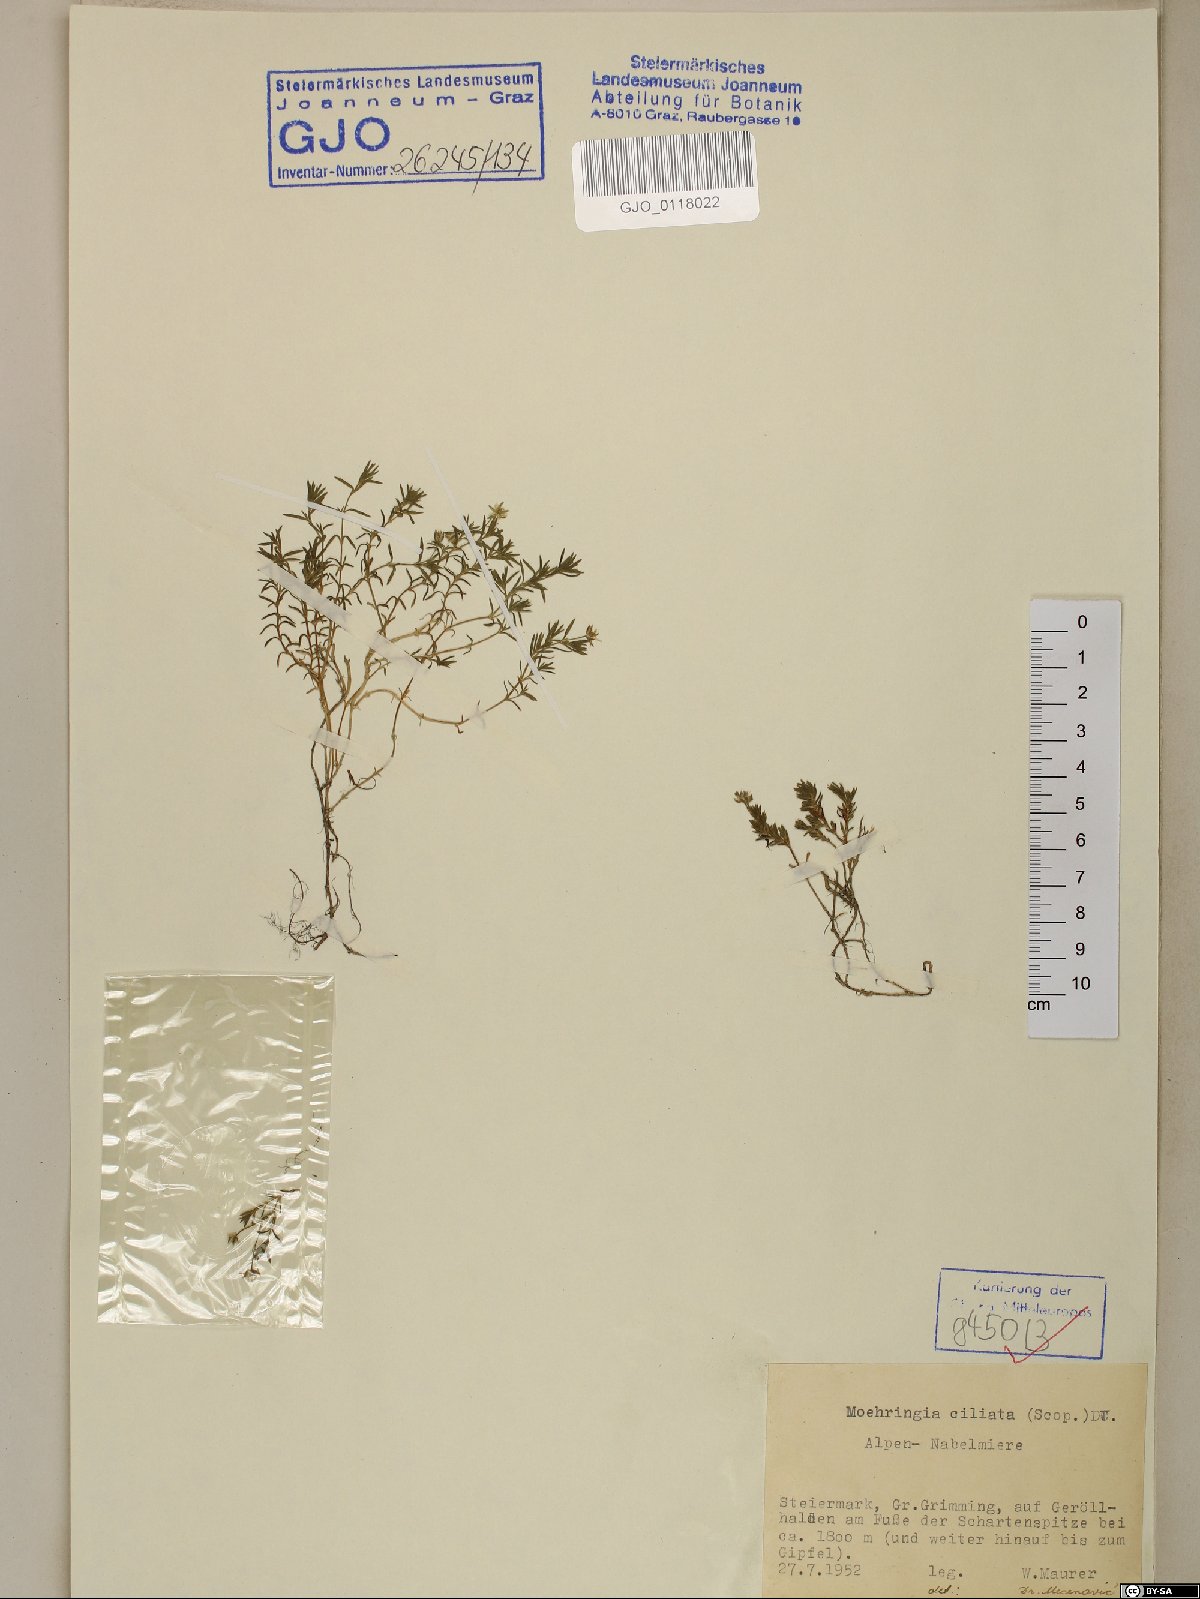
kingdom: Plantae
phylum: Tracheophyta
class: Magnoliopsida
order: Caryophyllales
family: Caryophyllaceae
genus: Moehringia
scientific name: Moehringia ciliata
